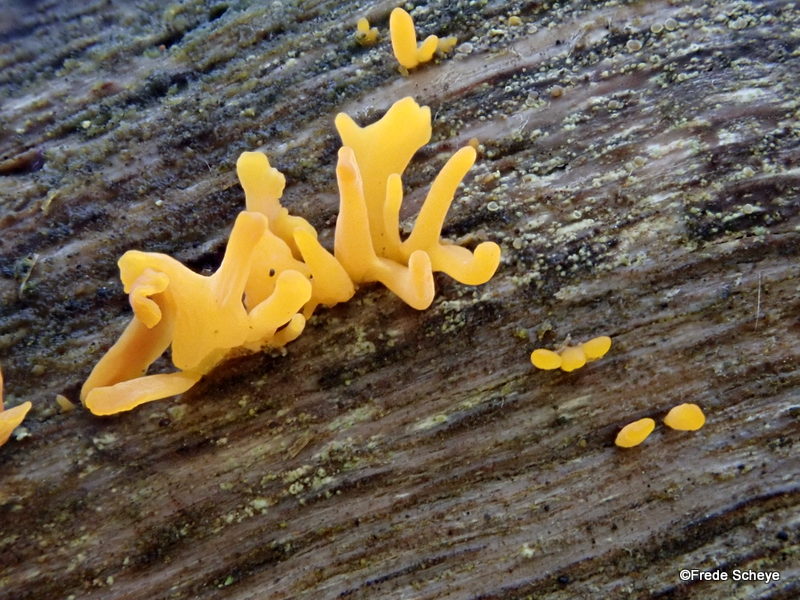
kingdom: Fungi
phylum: Basidiomycota
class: Dacrymycetes
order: Dacrymycetales
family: Dacrymycetaceae
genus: Calocera
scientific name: Calocera cornea
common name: liden guldgaffel
